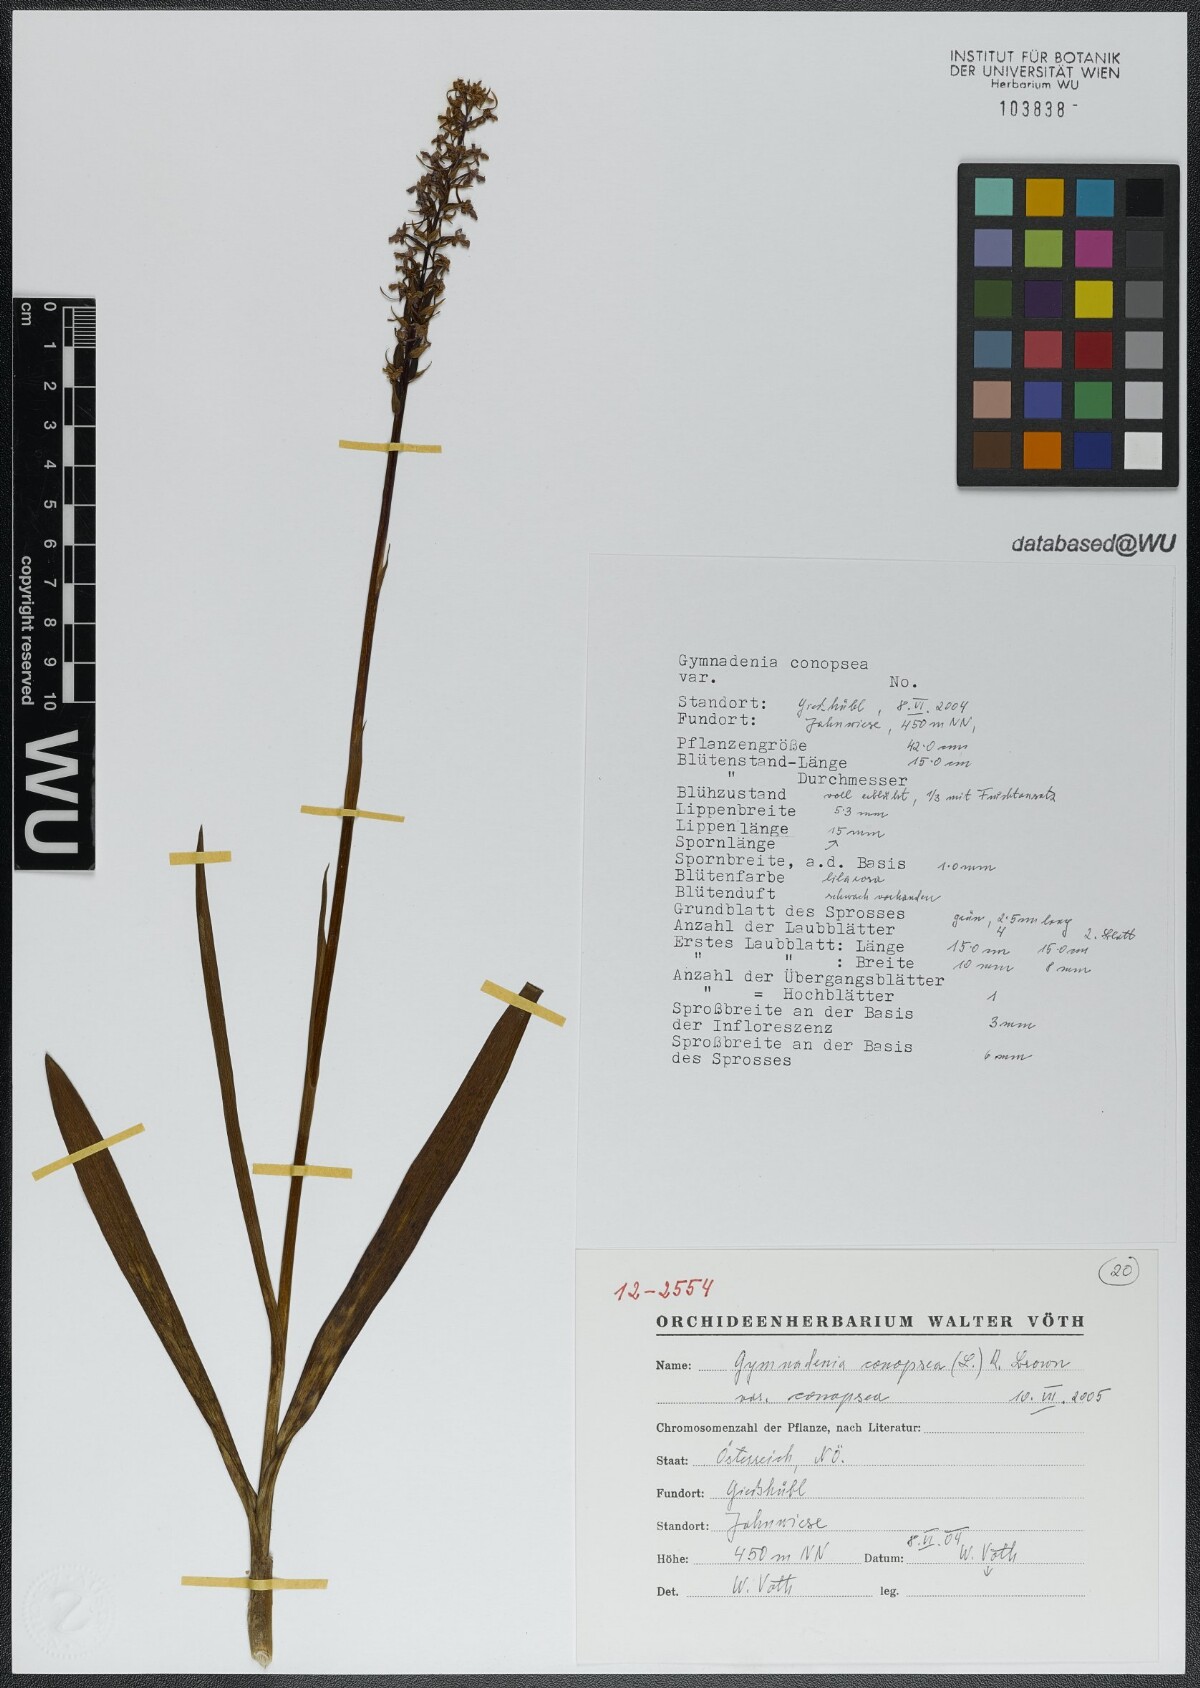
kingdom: Plantae
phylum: Tracheophyta
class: Liliopsida
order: Asparagales
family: Orchidaceae
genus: Gymnadenia
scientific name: Gymnadenia conopsea
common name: Fragrant orchid
